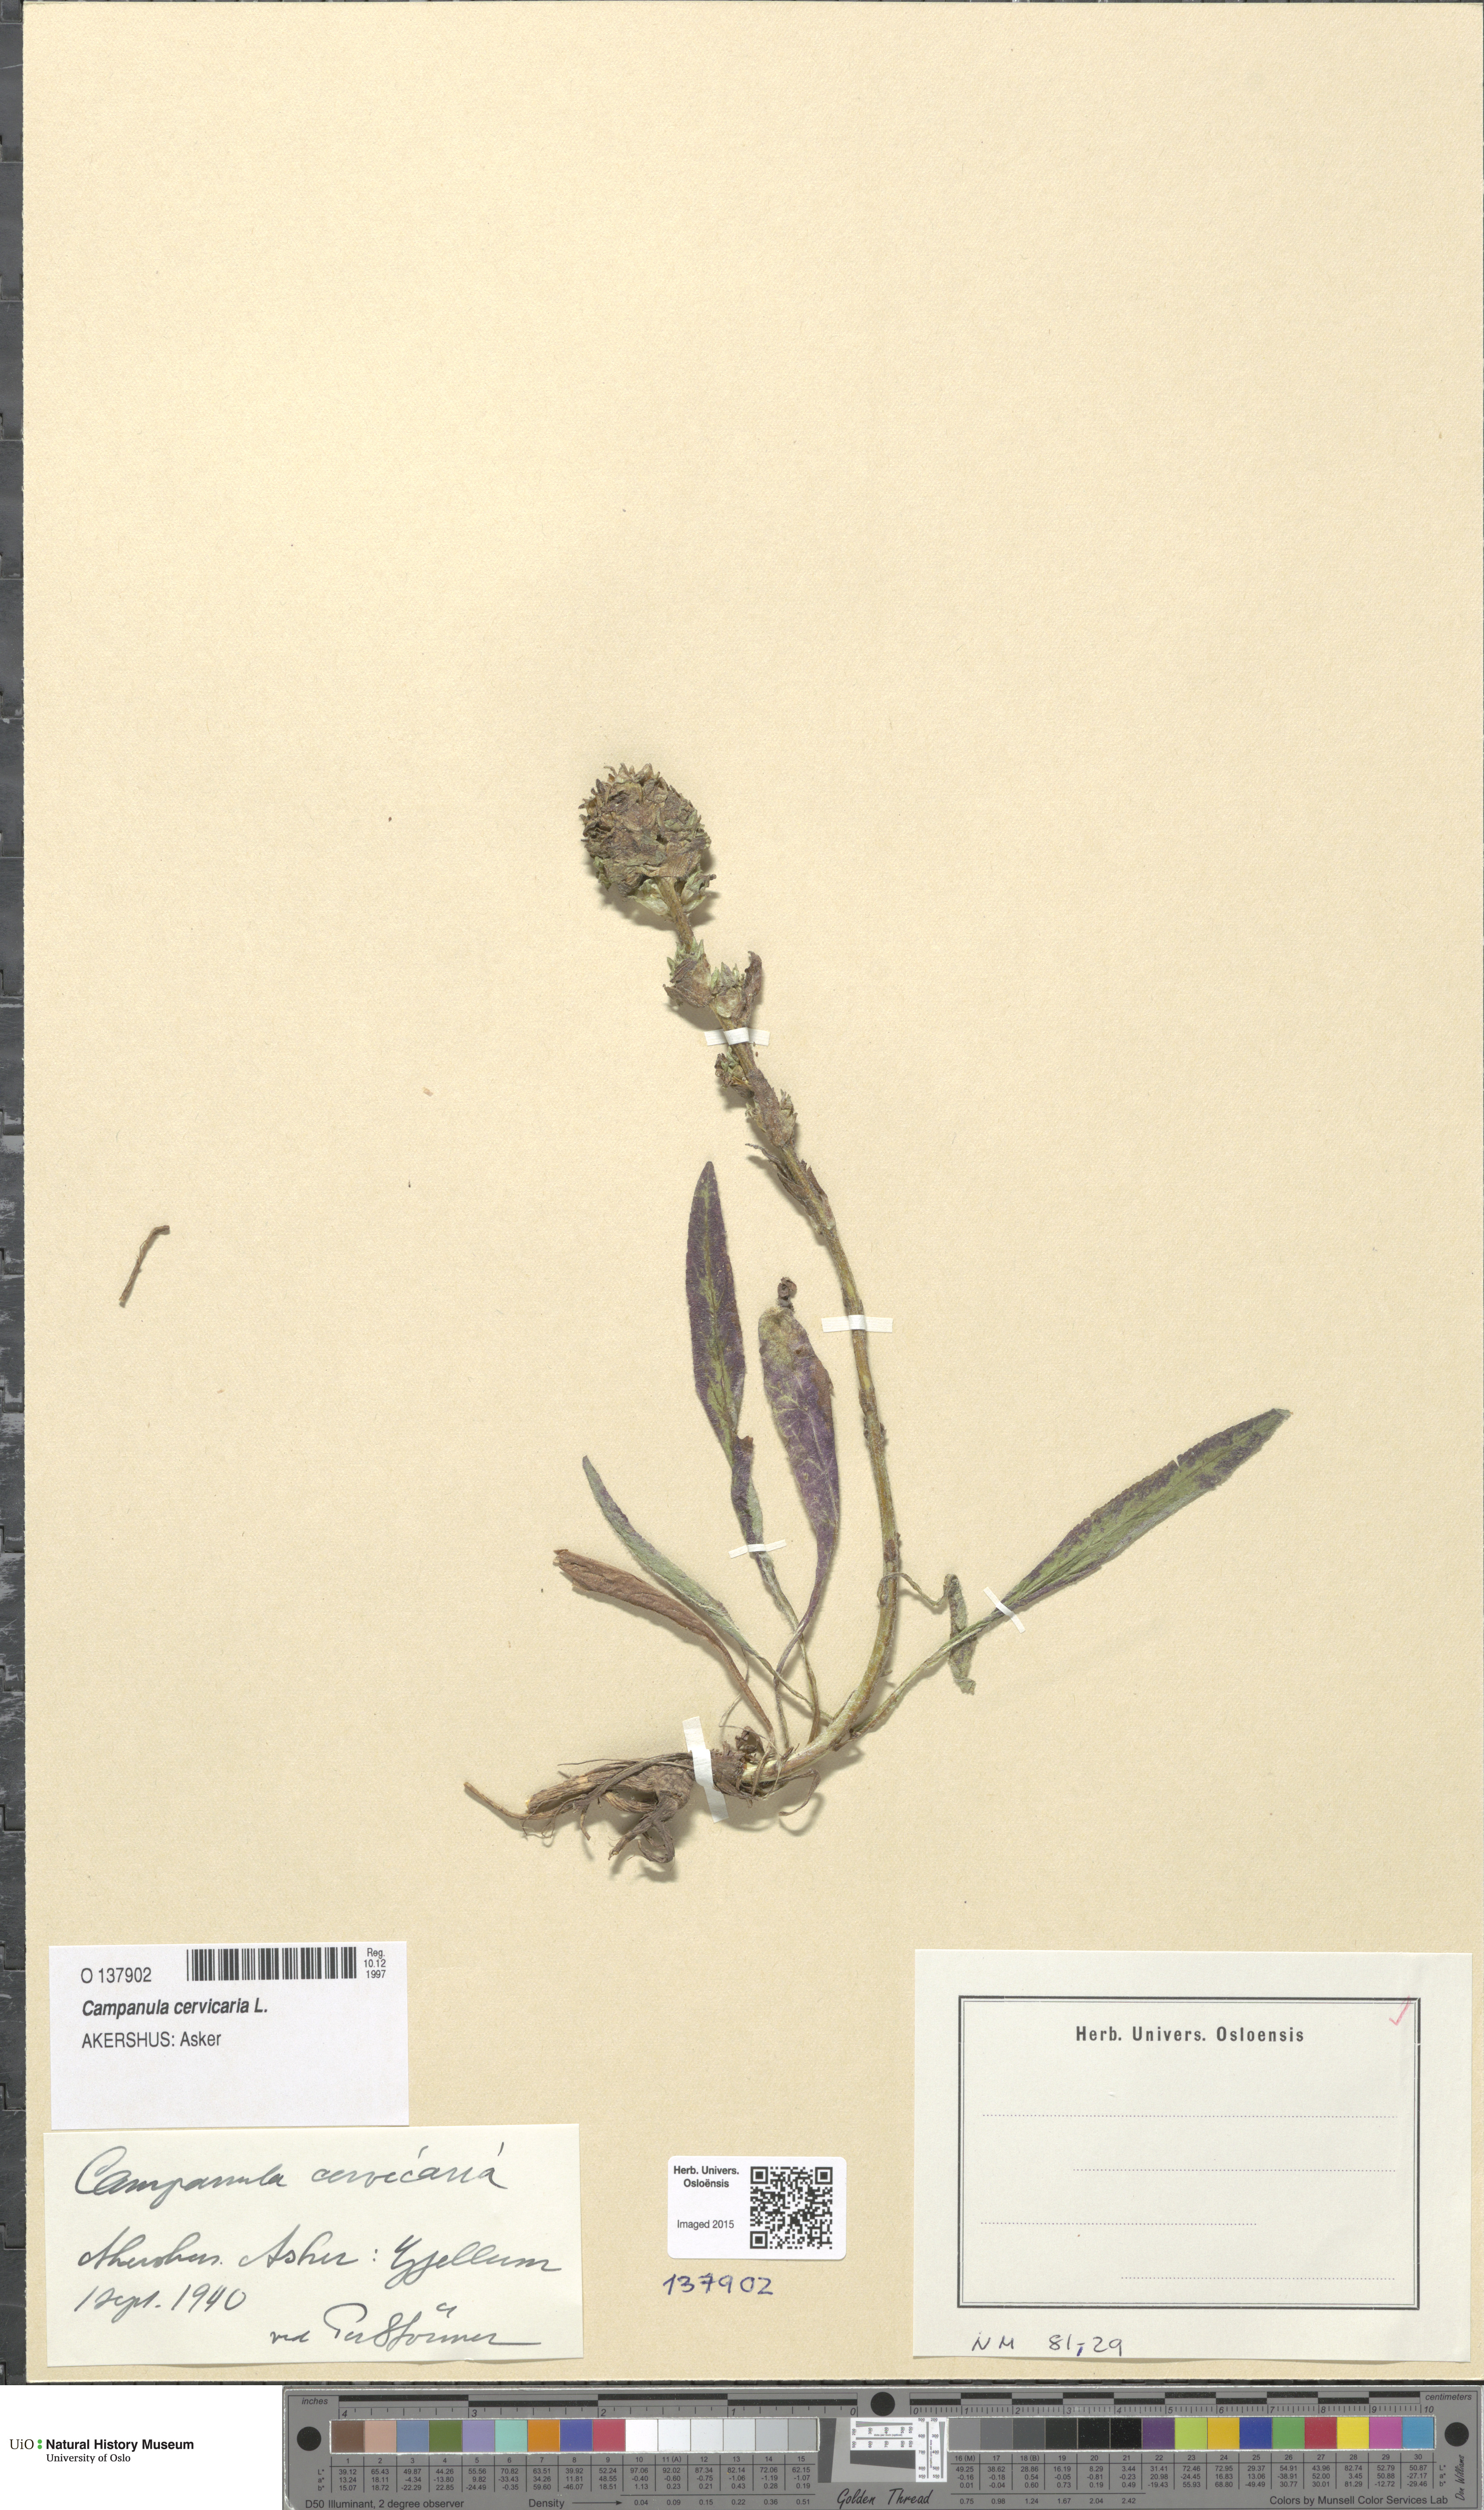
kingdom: Plantae
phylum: Tracheophyta
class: Magnoliopsida
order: Asterales
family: Campanulaceae
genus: Campanula
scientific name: Campanula cervicaria
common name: Bristly bellflower
